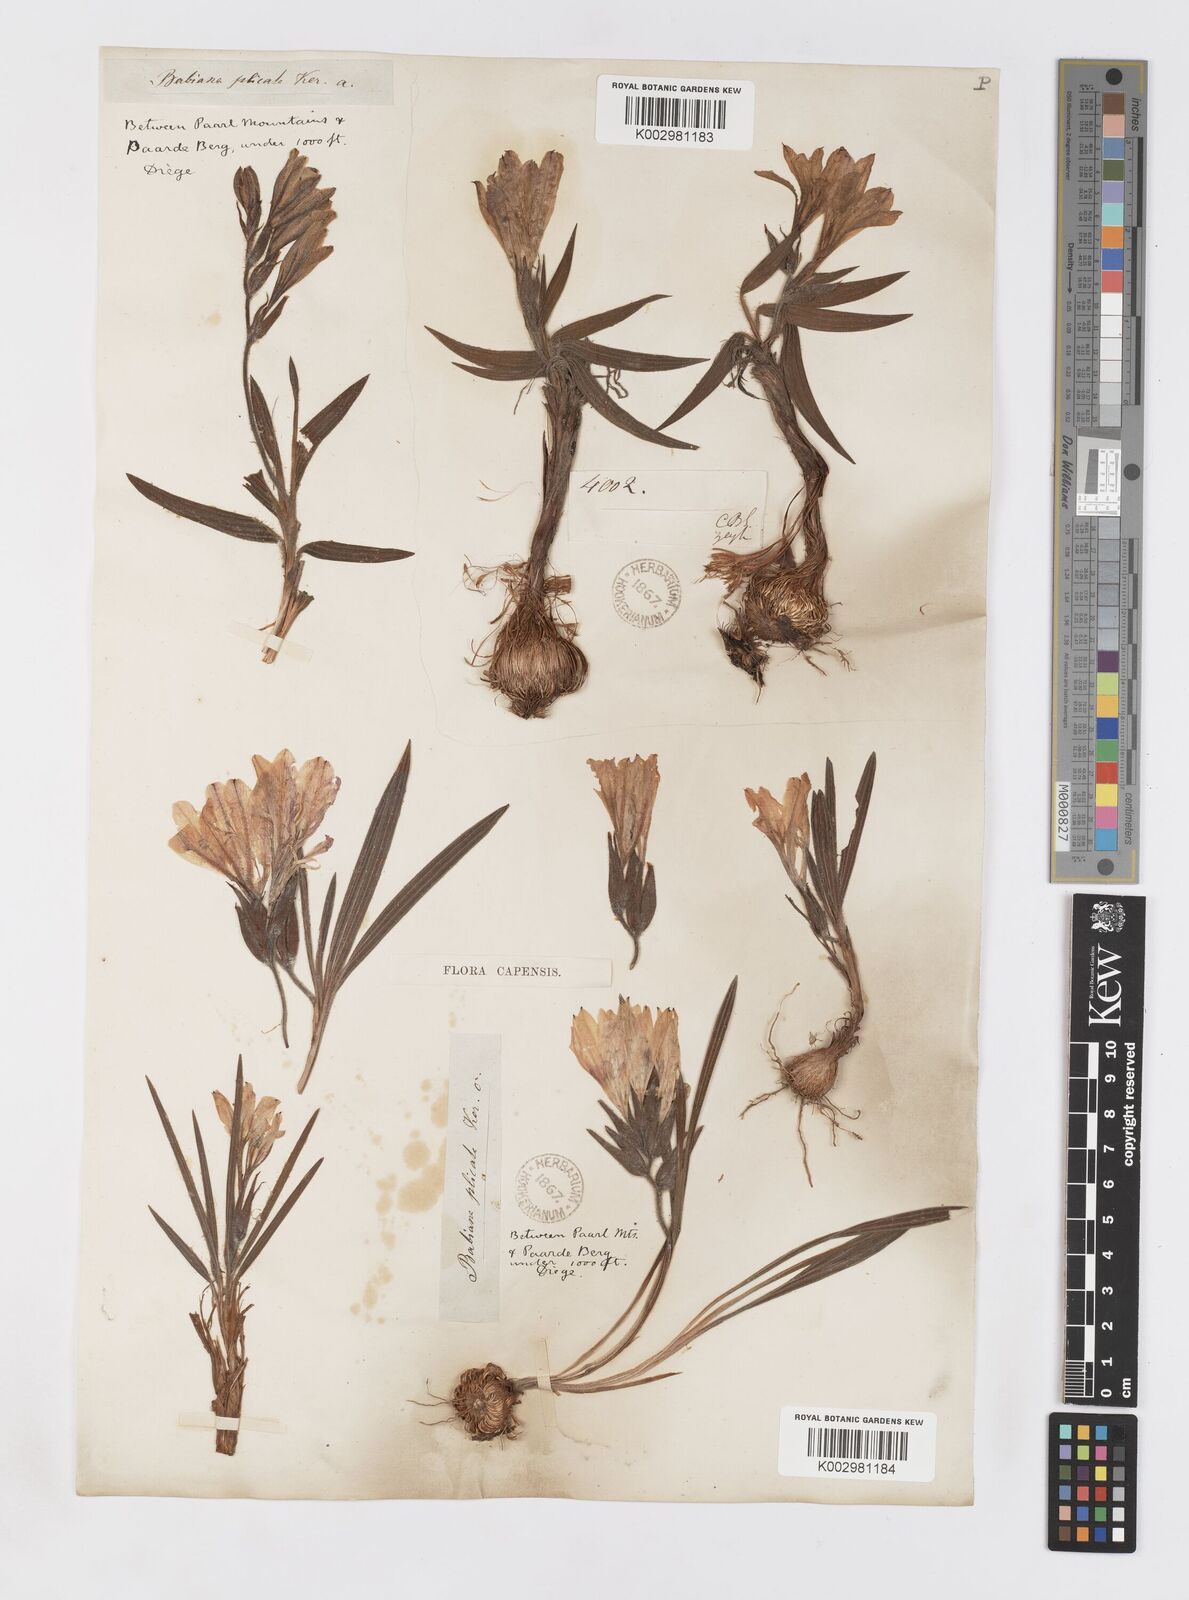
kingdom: Plantae
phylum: Tracheophyta
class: Liliopsida
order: Asparagales
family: Iridaceae
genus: Babiana
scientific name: Babiana fragrans
